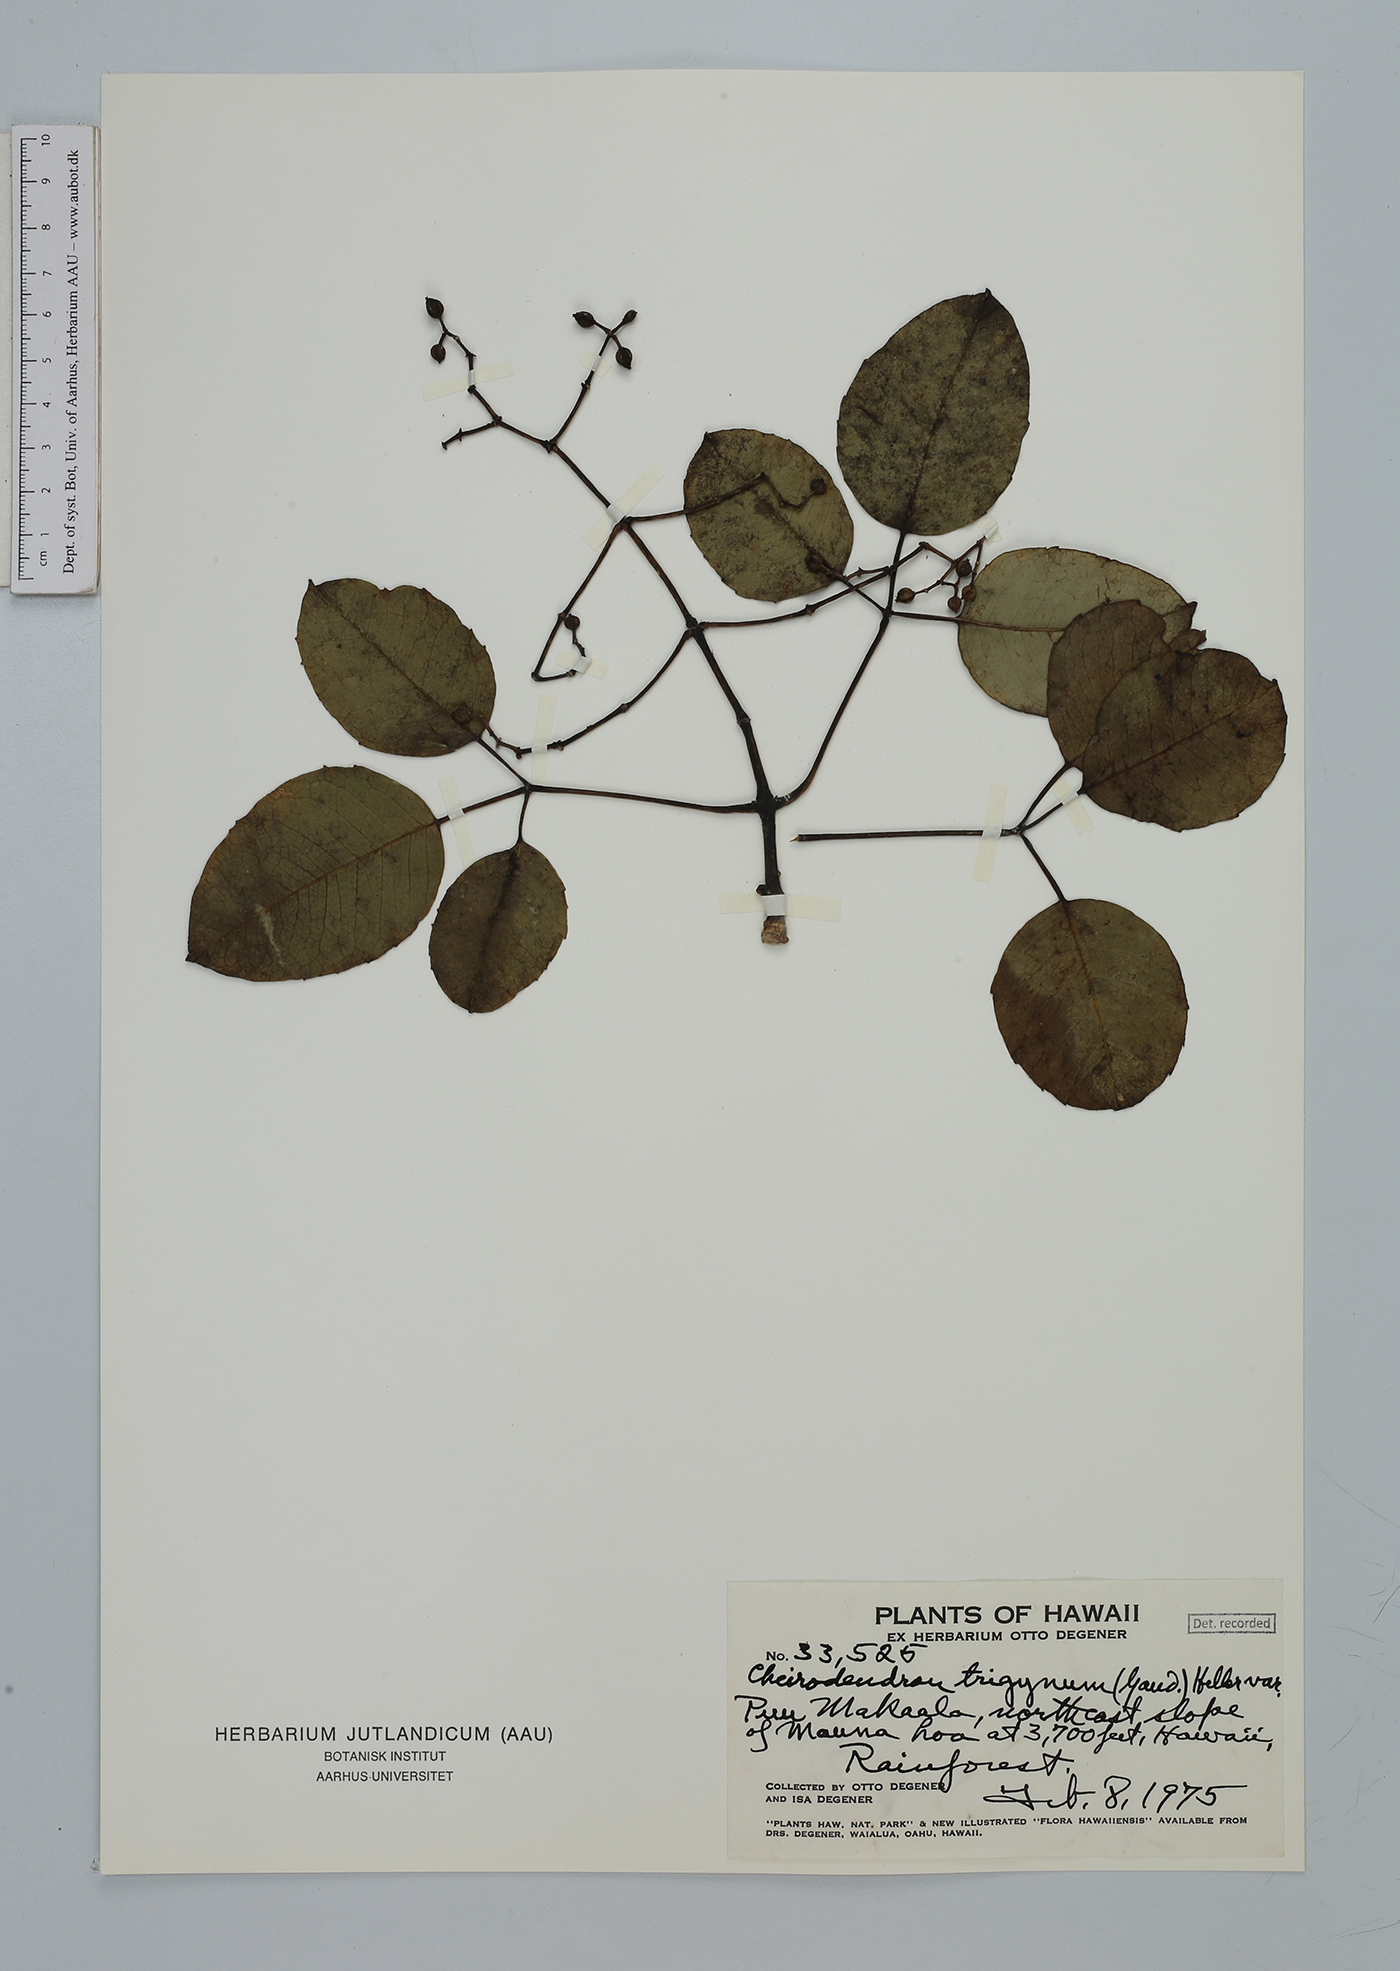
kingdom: Plantae
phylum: Tracheophyta
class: Magnoliopsida
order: Apiales
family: Araliaceae
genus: Cheirodendron
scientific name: Cheirodendron trigynum
